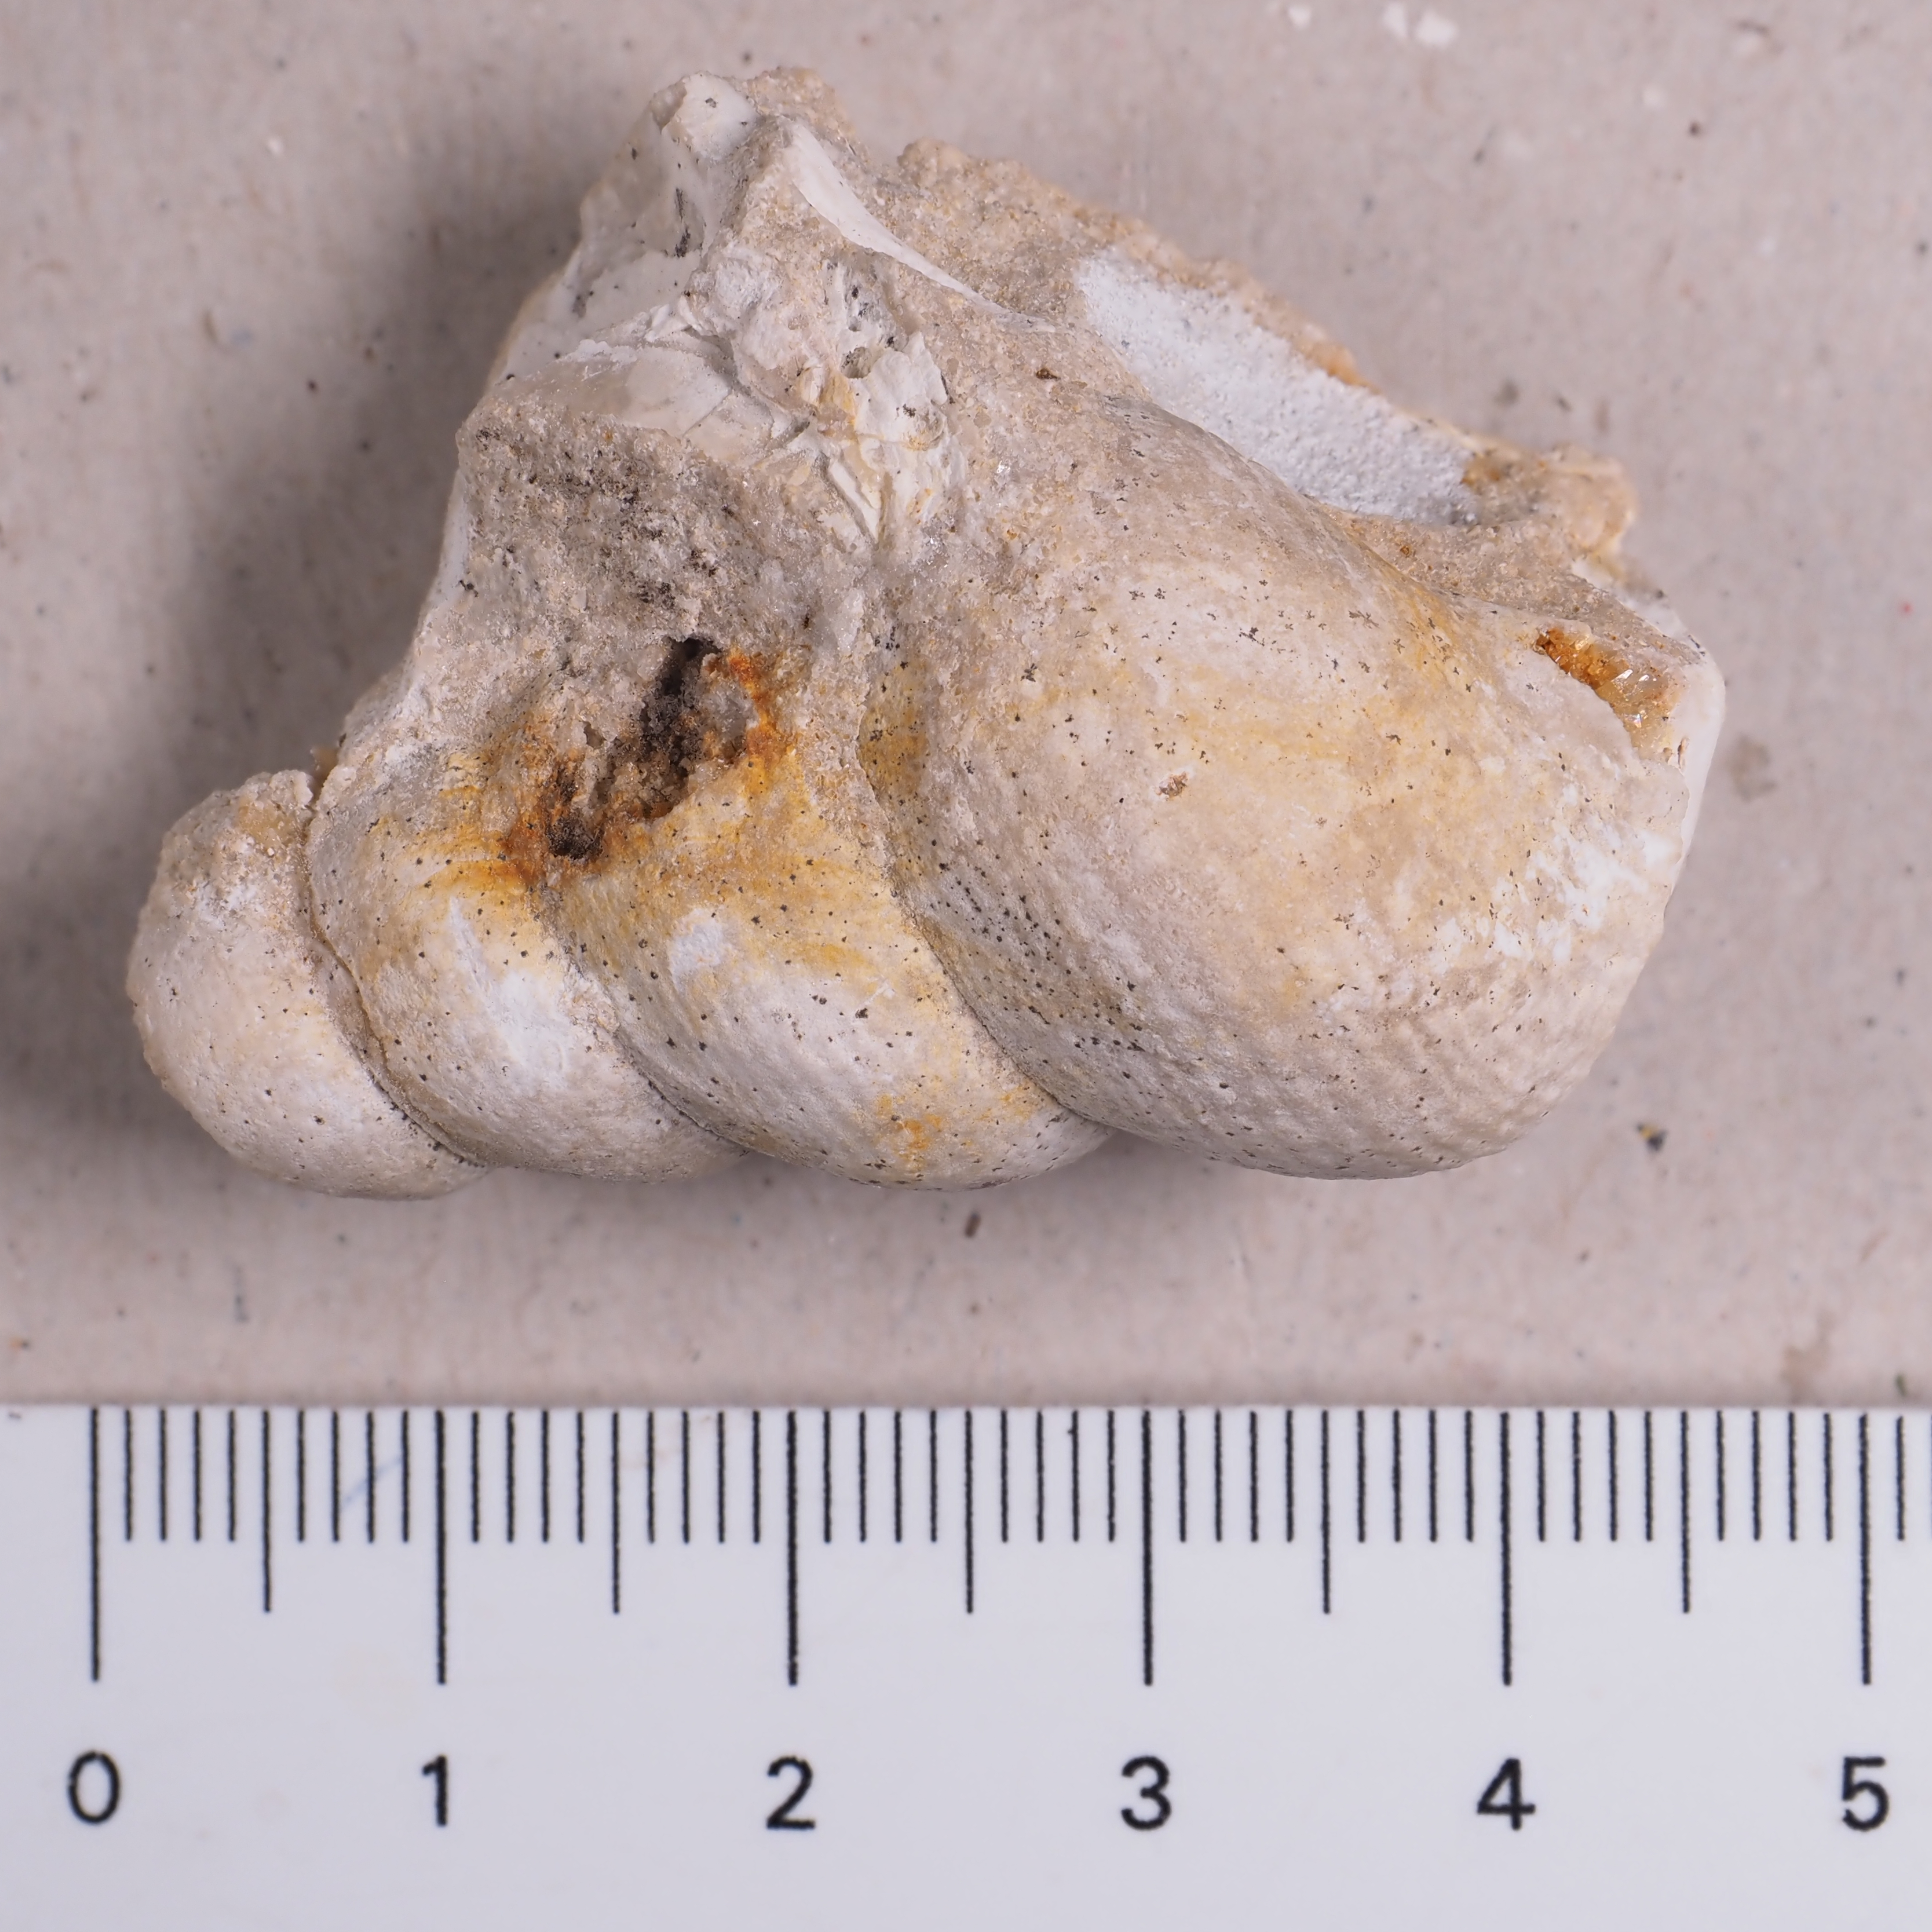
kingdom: Animalia
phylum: Mollusca
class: Gastropoda
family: Pseudomelaniidae
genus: Bourgetia
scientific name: Bourgetia
